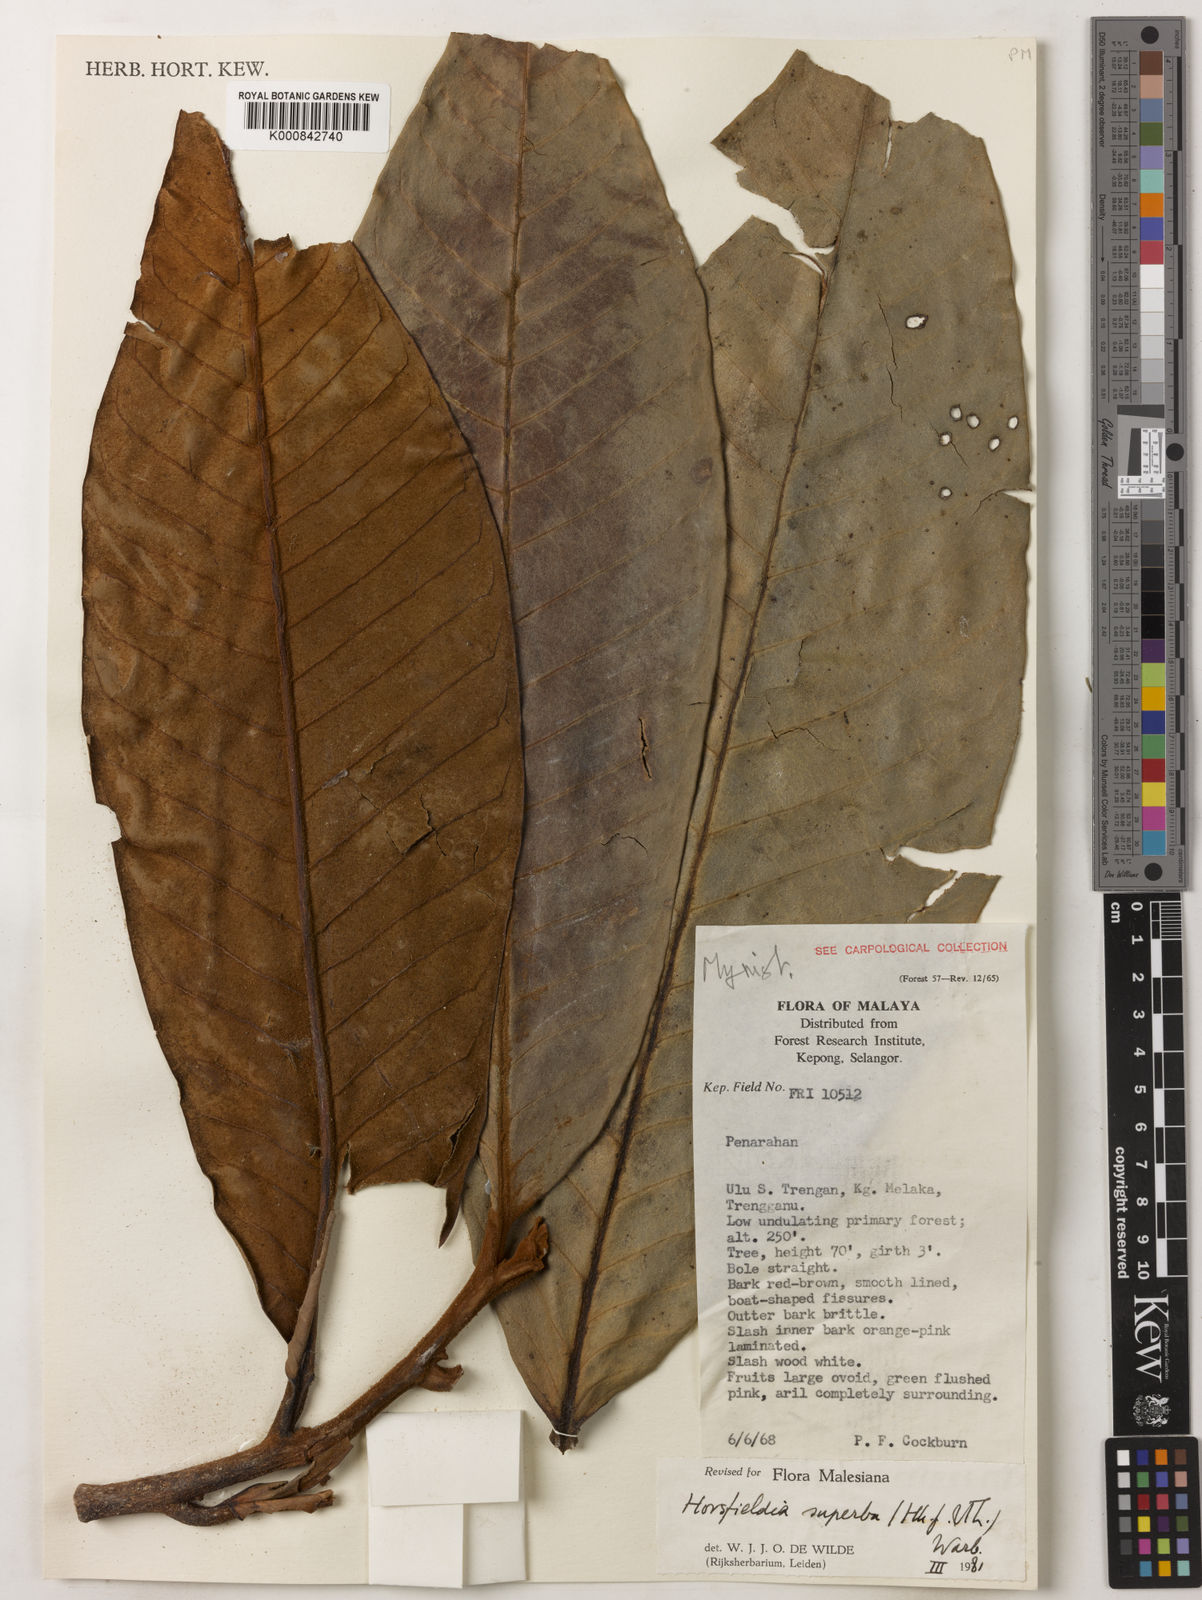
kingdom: Plantae
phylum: Tracheophyta
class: Magnoliopsida
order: Magnoliales
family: Myristicaceae
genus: Horsfieldia
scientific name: Horsfieldia superba
